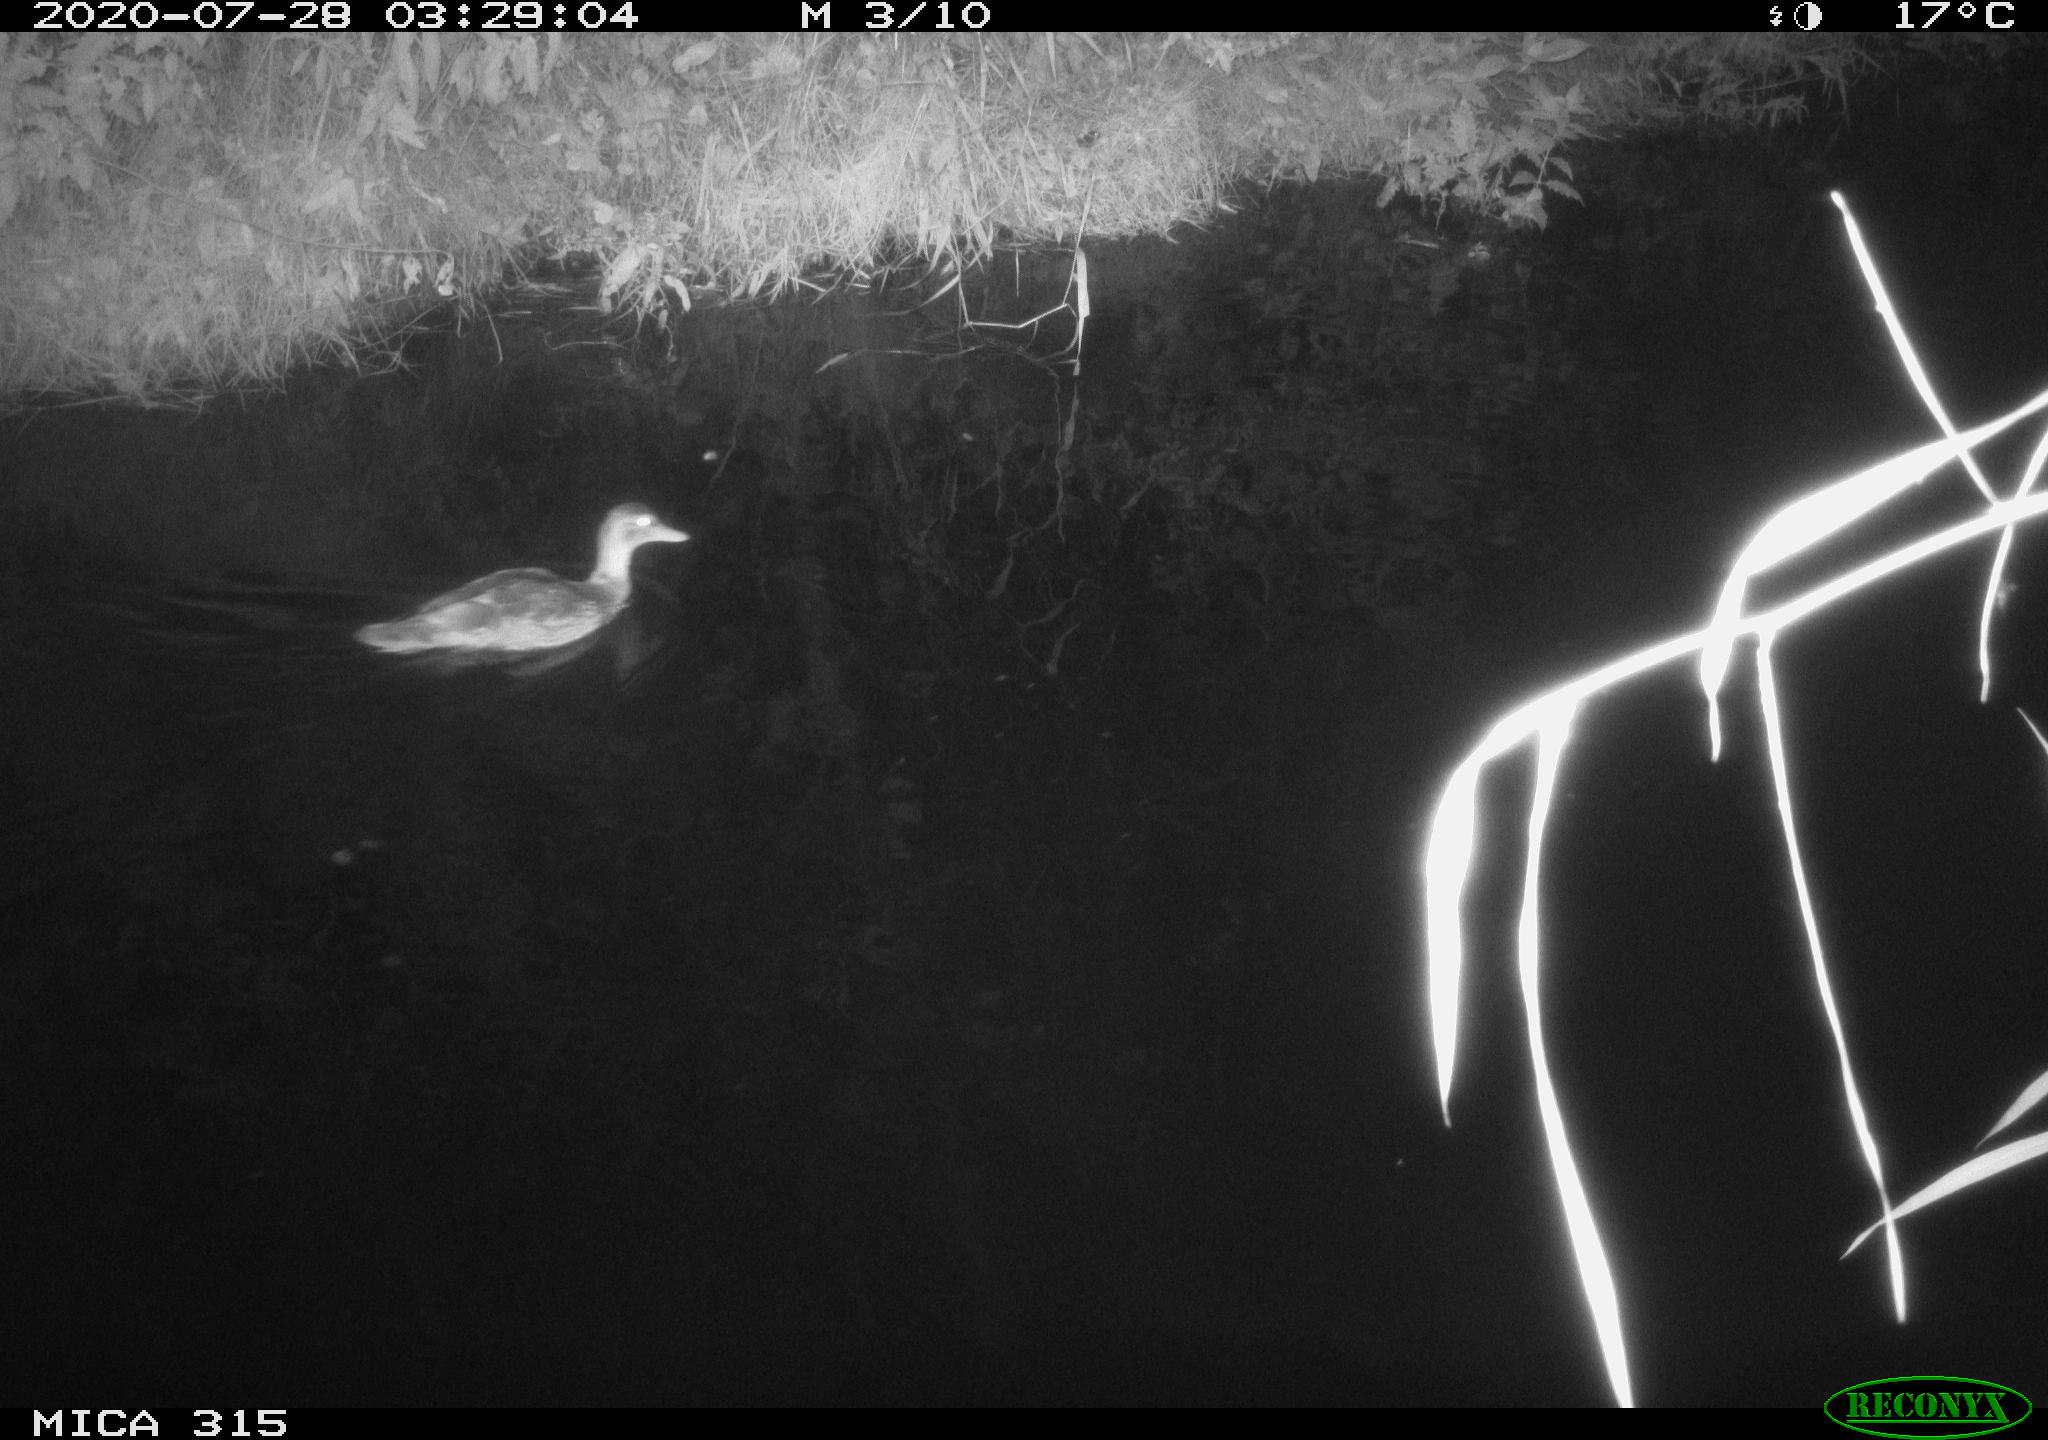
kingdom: Animalia
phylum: Chordata
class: Aves
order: Anseriformes
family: Anatidae
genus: Anas
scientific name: Anas platyrhynchos
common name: Mallard
